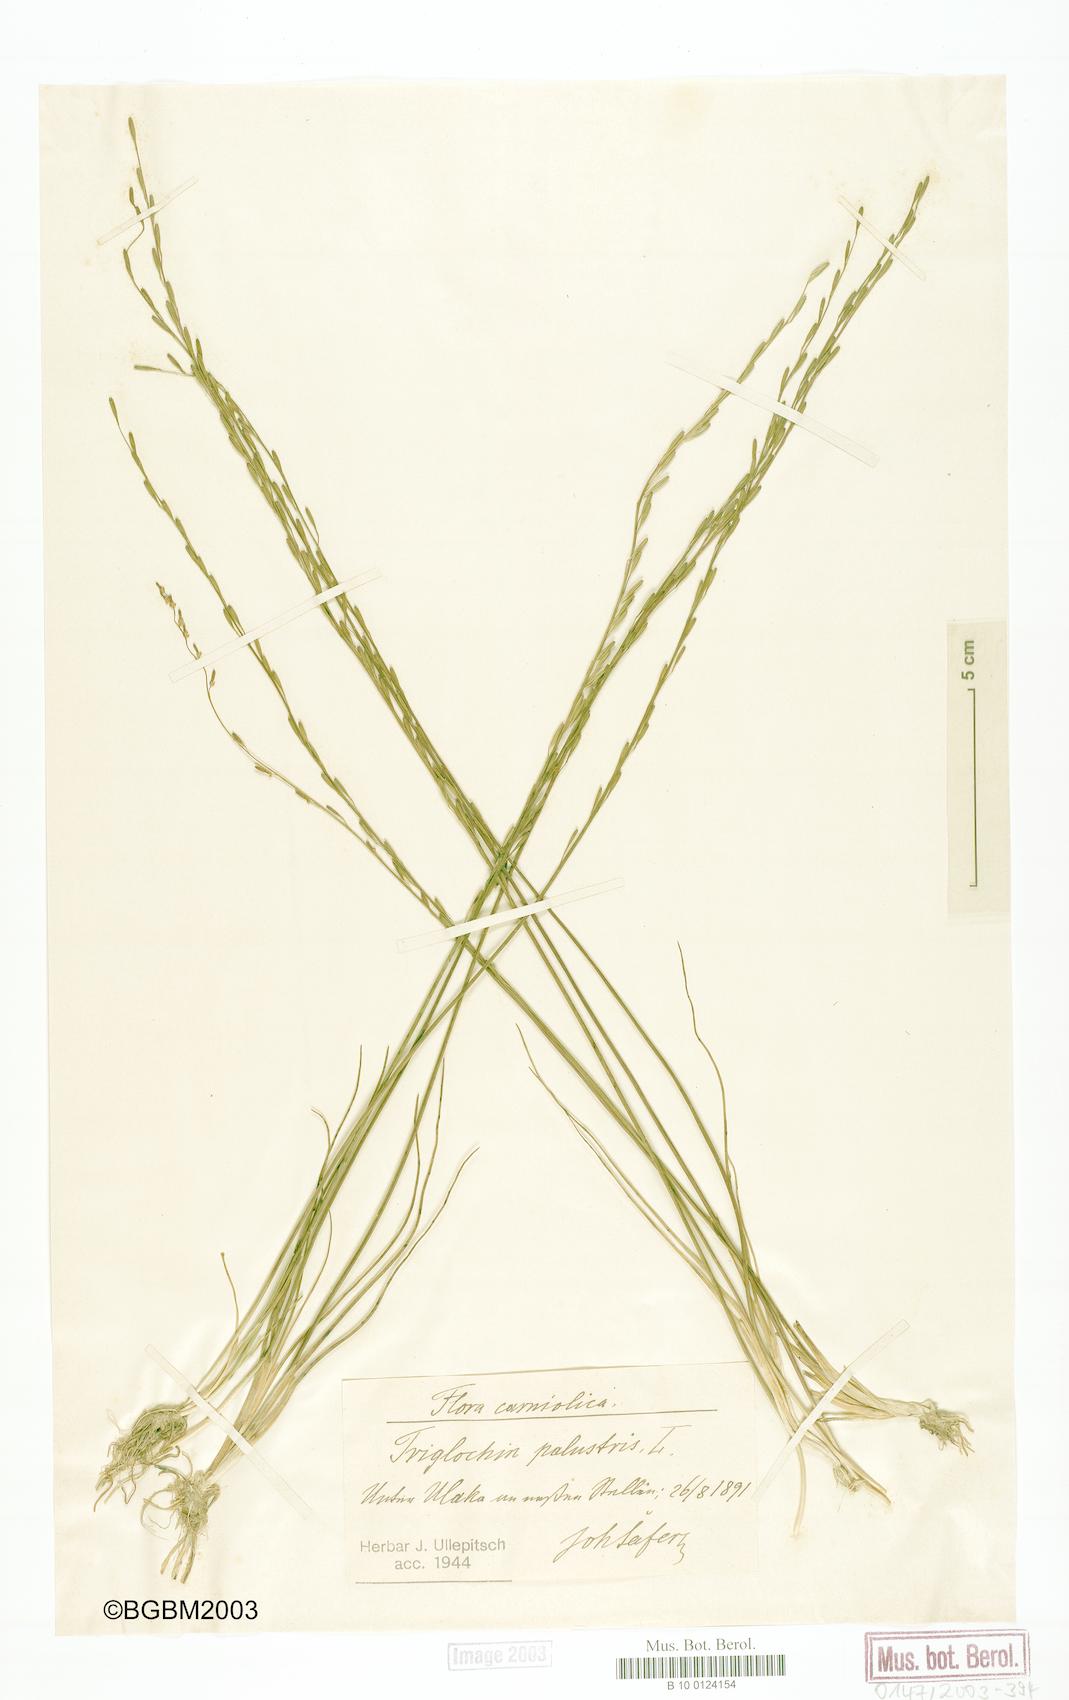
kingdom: Plantae
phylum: Tracheophyta
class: Liliopsida
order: Alismatales
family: Juncaginaceae
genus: Triglochin
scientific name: Triglochin palustris
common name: Marsh arrowgrass
